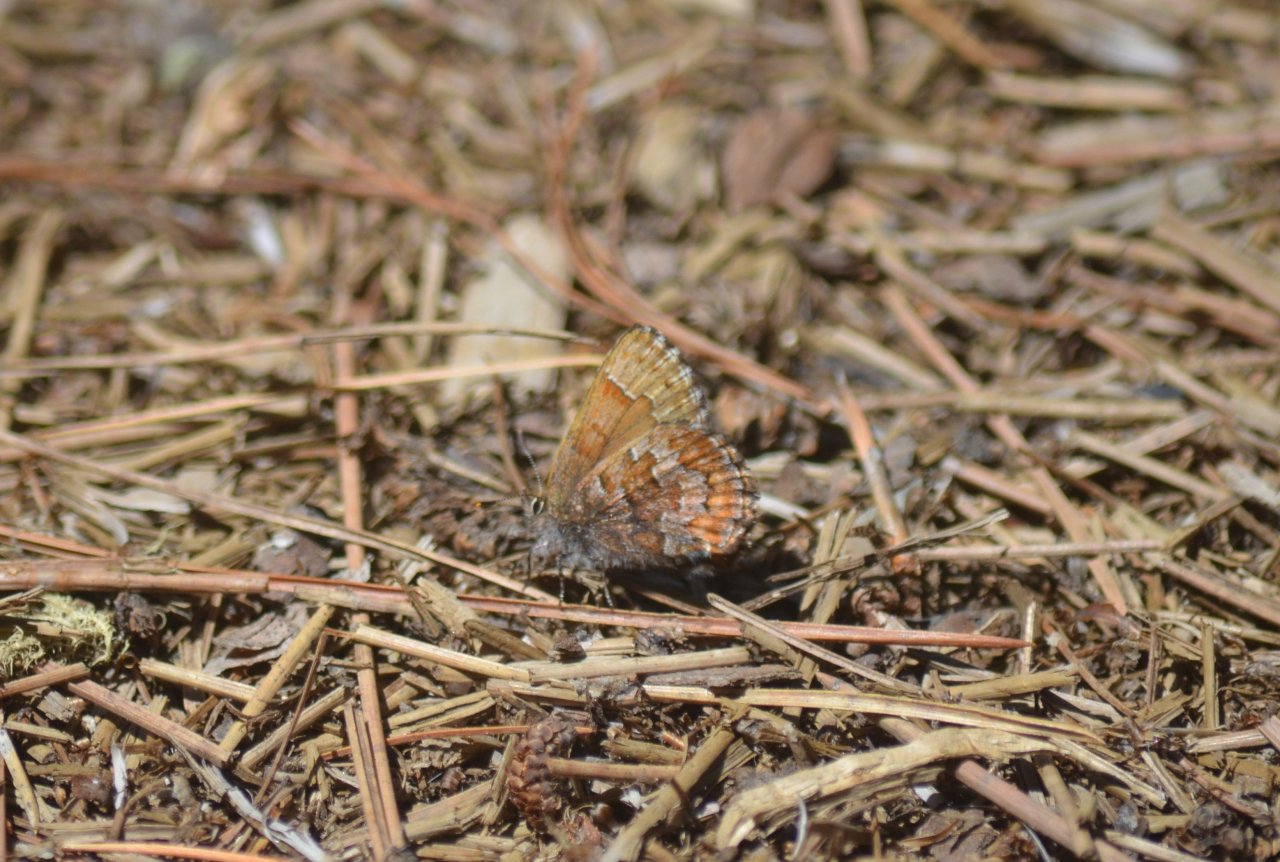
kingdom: Animalia
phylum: Arthropoda
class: Insecta
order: Lepidoptera
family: Lycaenidae
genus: Incisalia
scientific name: Incisalia niphon
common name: Eastern Pine Elfin
